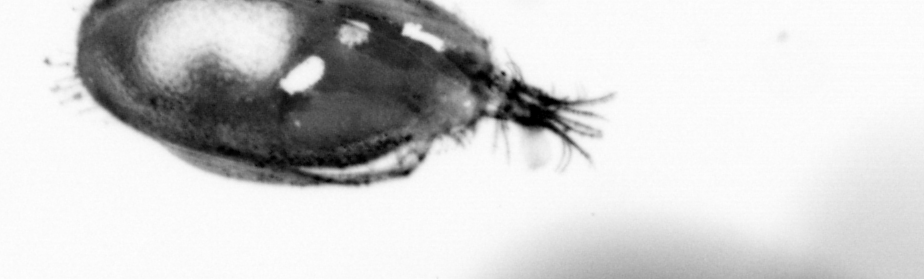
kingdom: Animalia
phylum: Chordata
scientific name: Chordata
